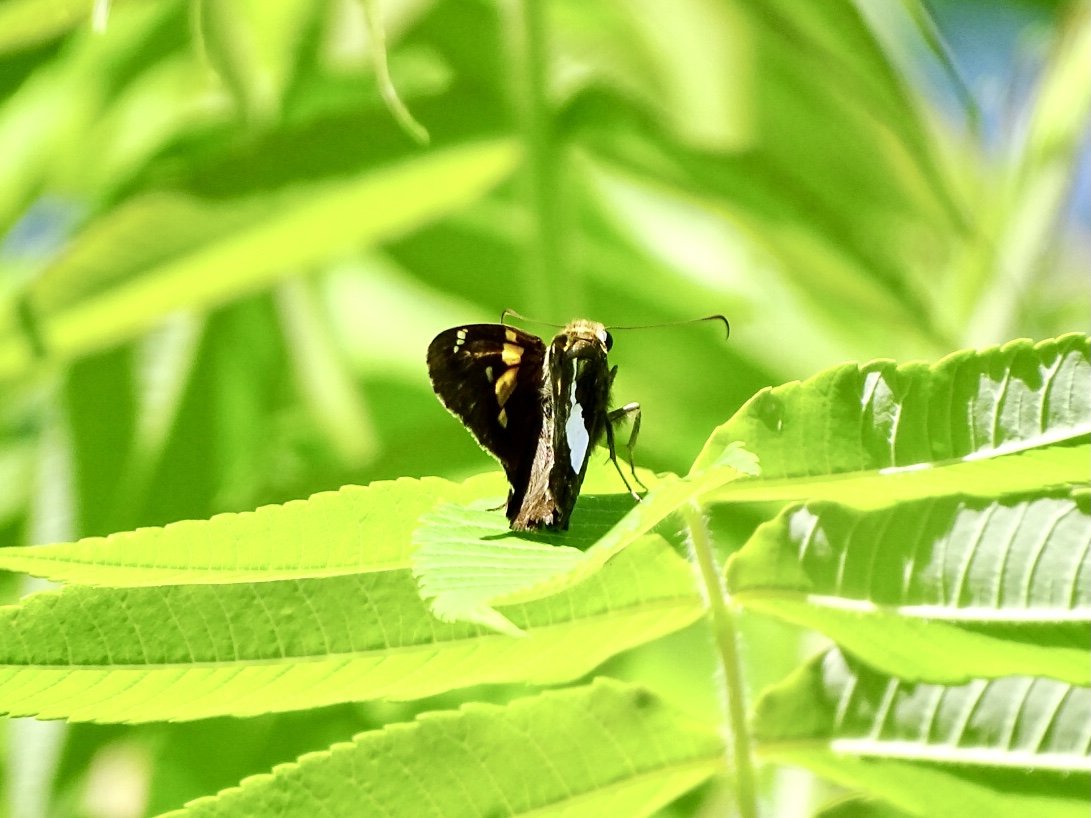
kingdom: Animalia
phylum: Arthropoda
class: Insecta
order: Lepidoptera
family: Hesperiidae
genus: Epargyreus
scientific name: Epargyreus clarus
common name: Silver-spotted Skipper
